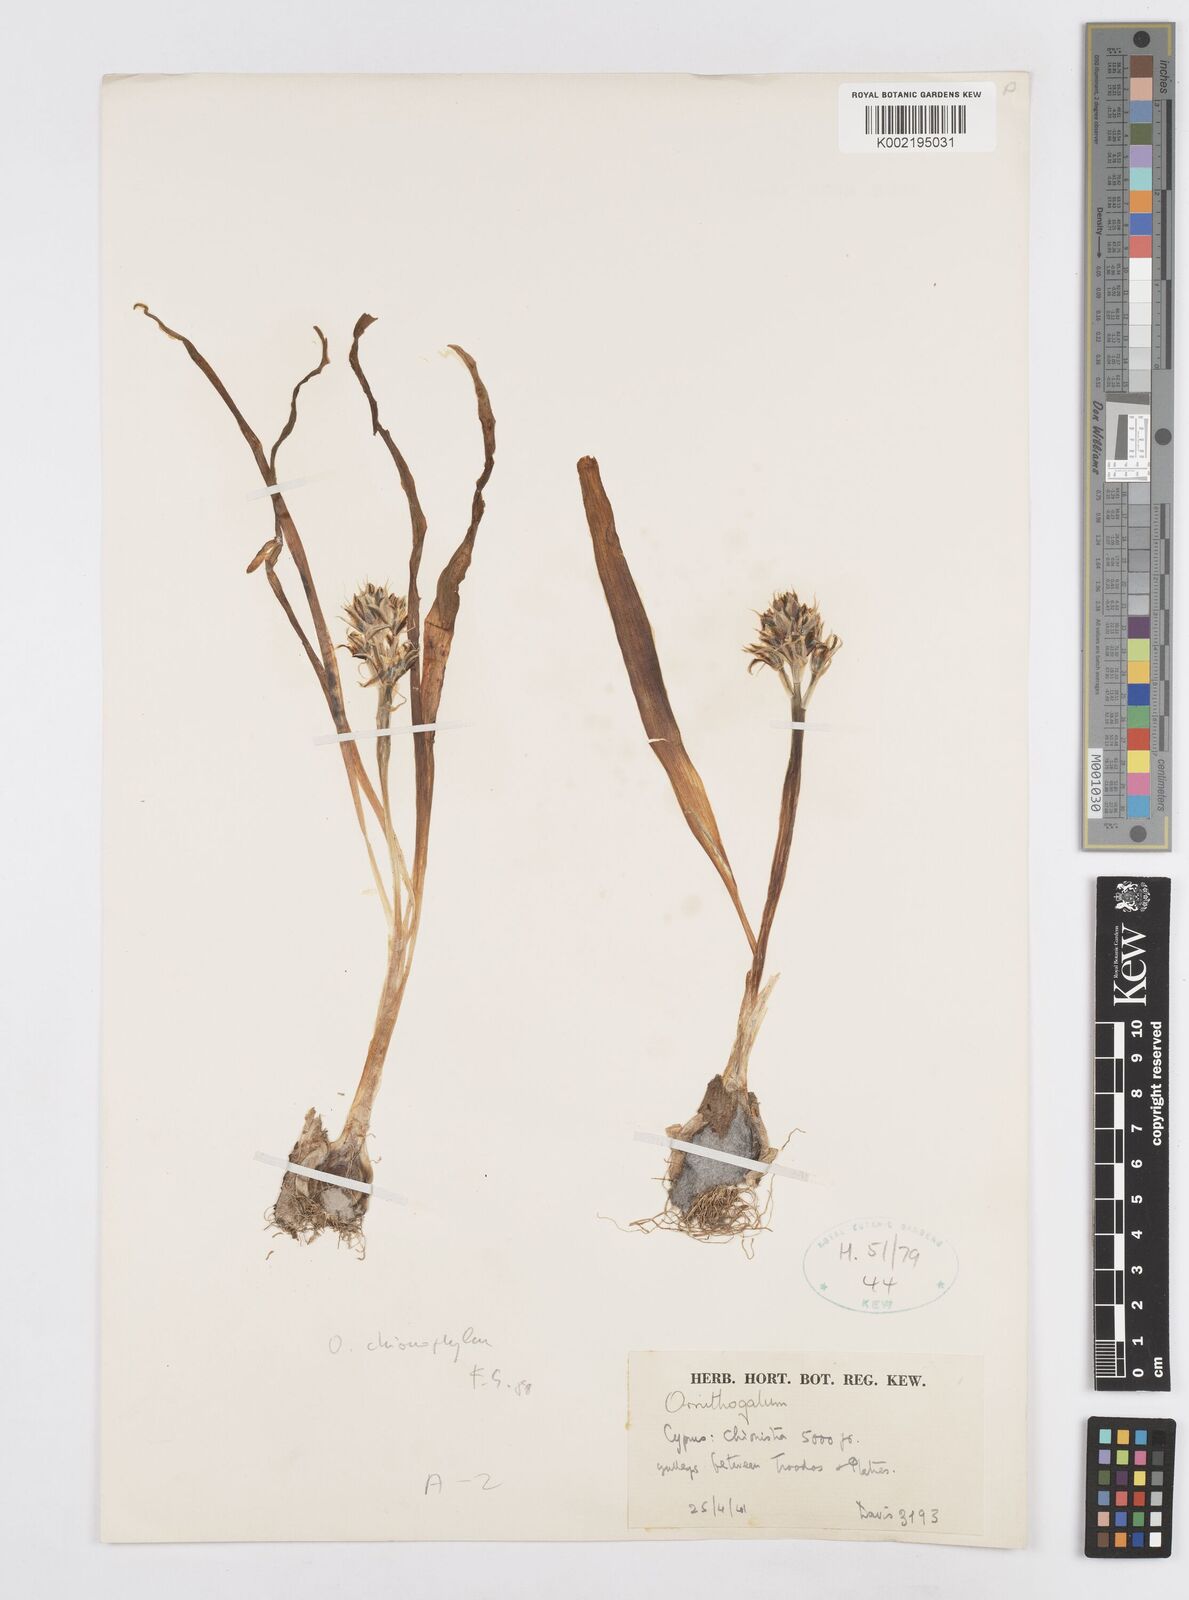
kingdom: Plantae
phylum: Tracheophyta
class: Liliopsida
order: Asparagales
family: Asparagaceae
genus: Ornithogalum
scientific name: Ornithogalum chionophilum
